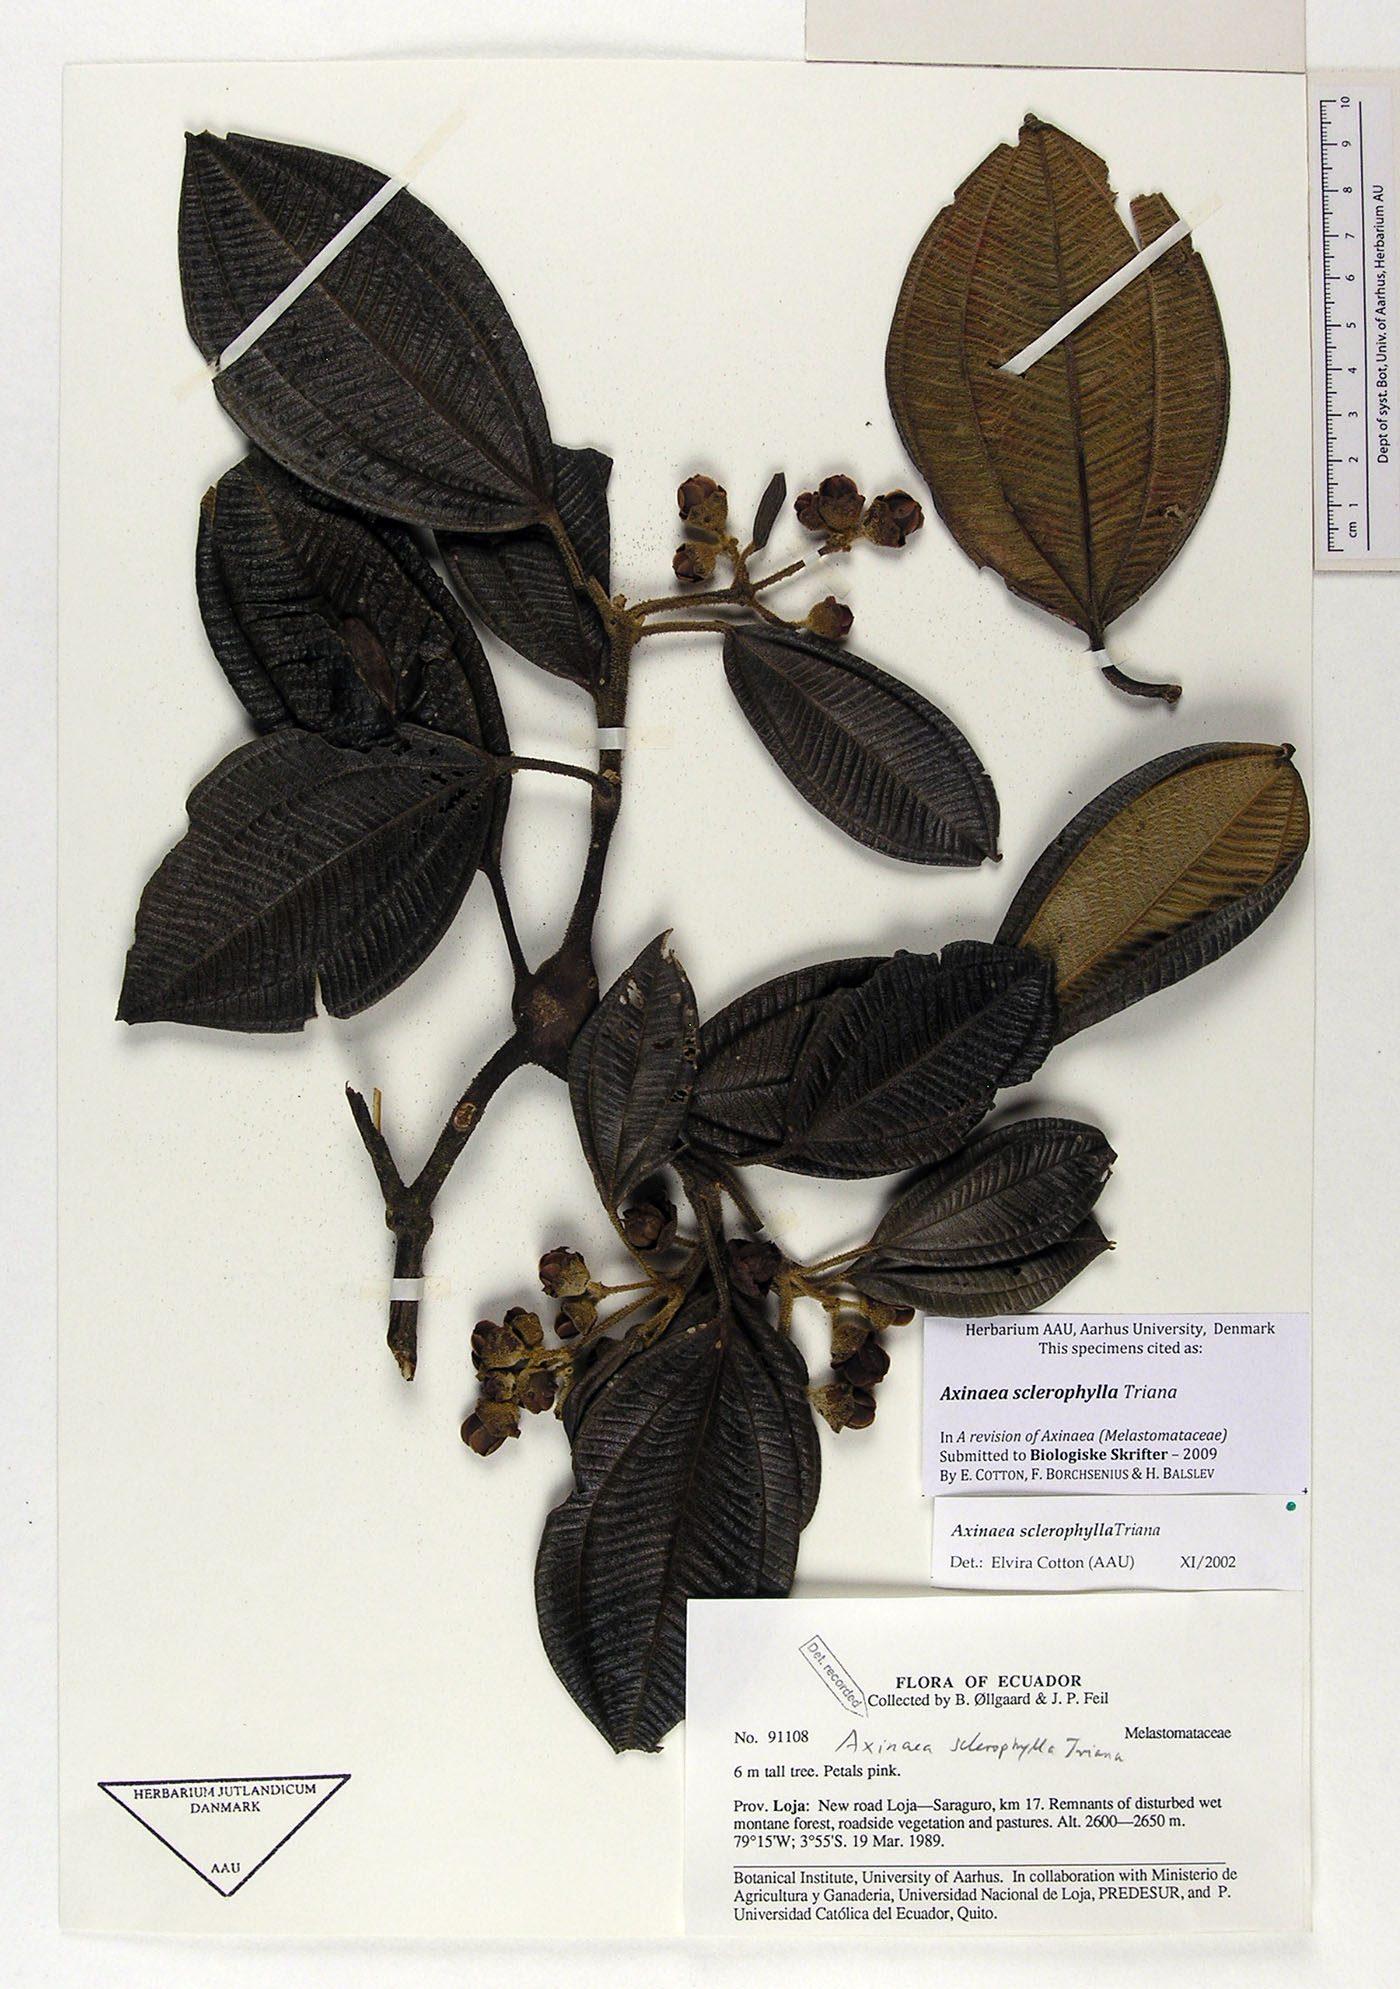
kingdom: Plantae
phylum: Tracheophyta
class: Magnoliopsida
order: Myrtales
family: Melastomataceae
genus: Axinaea
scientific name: Axinaea sclerophylla
